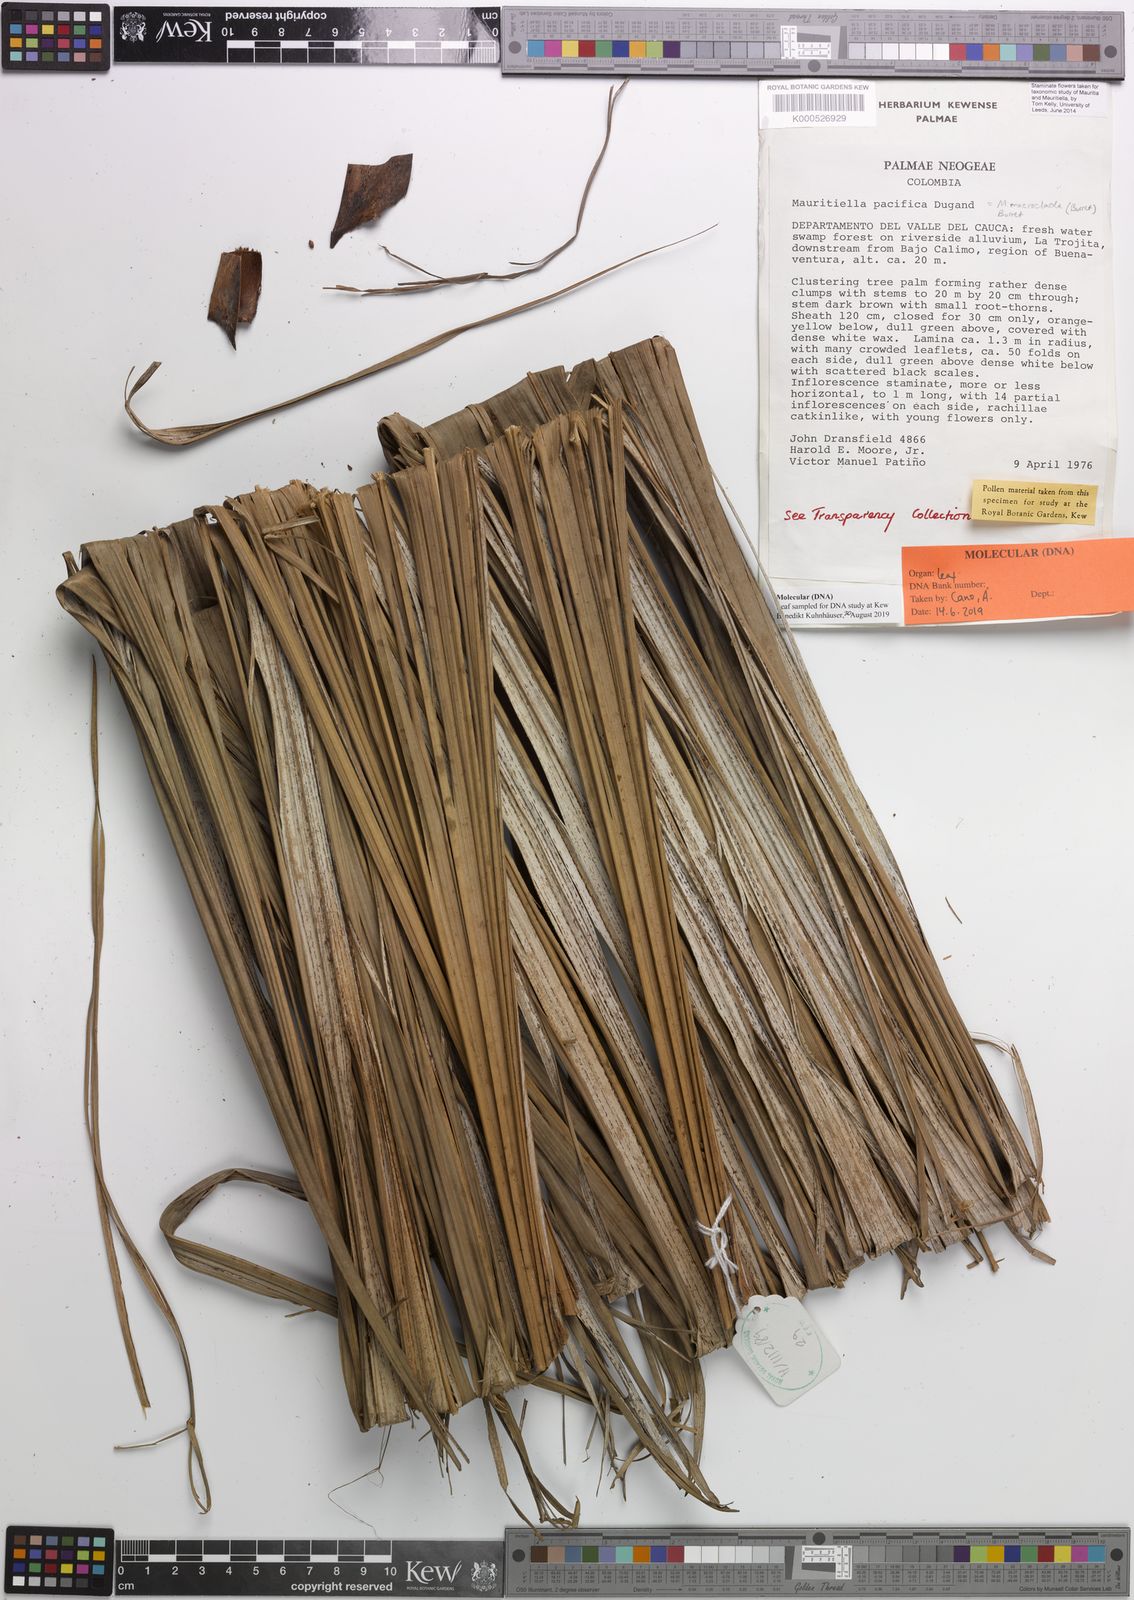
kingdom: Plantae
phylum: Tracheophyta
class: Liliopsida
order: Arecales
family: Arecaceae
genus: Mauritiella
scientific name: Mauritiella macroclada
